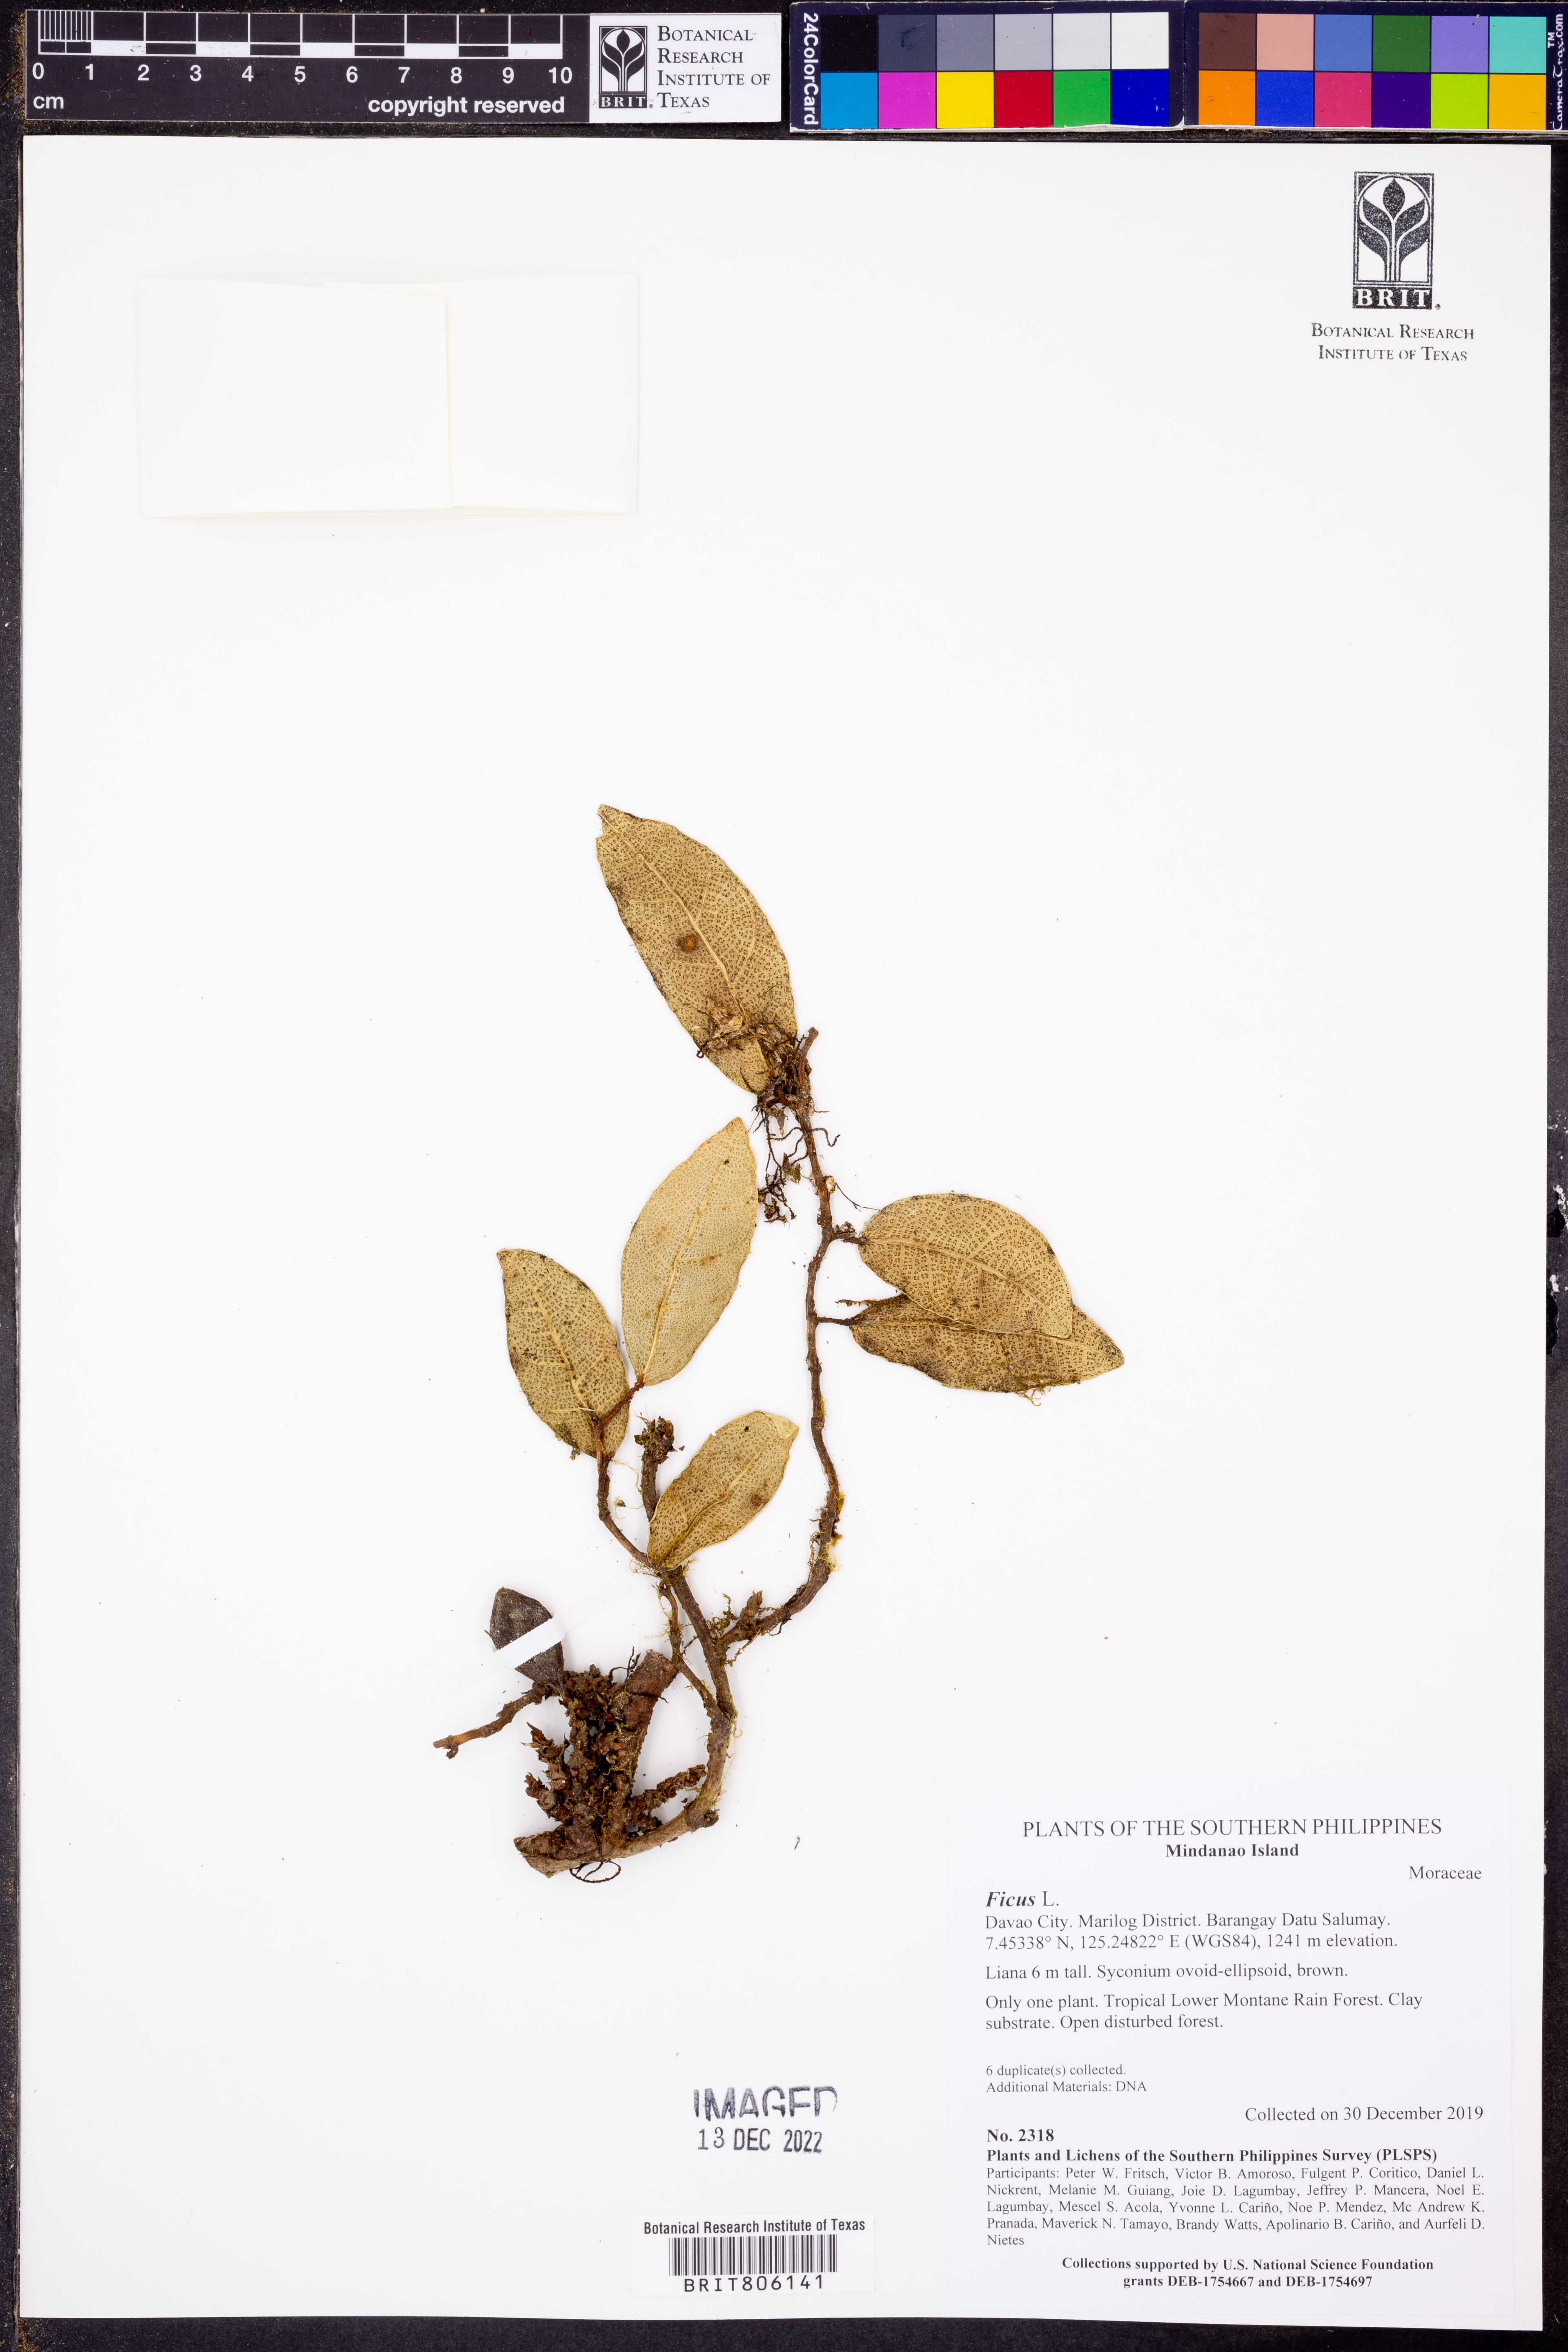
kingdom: Plantae
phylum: Tracheophyta
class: Magnoliopsida
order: Rosales
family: Moraceae
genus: Ficus
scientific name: Ficus
